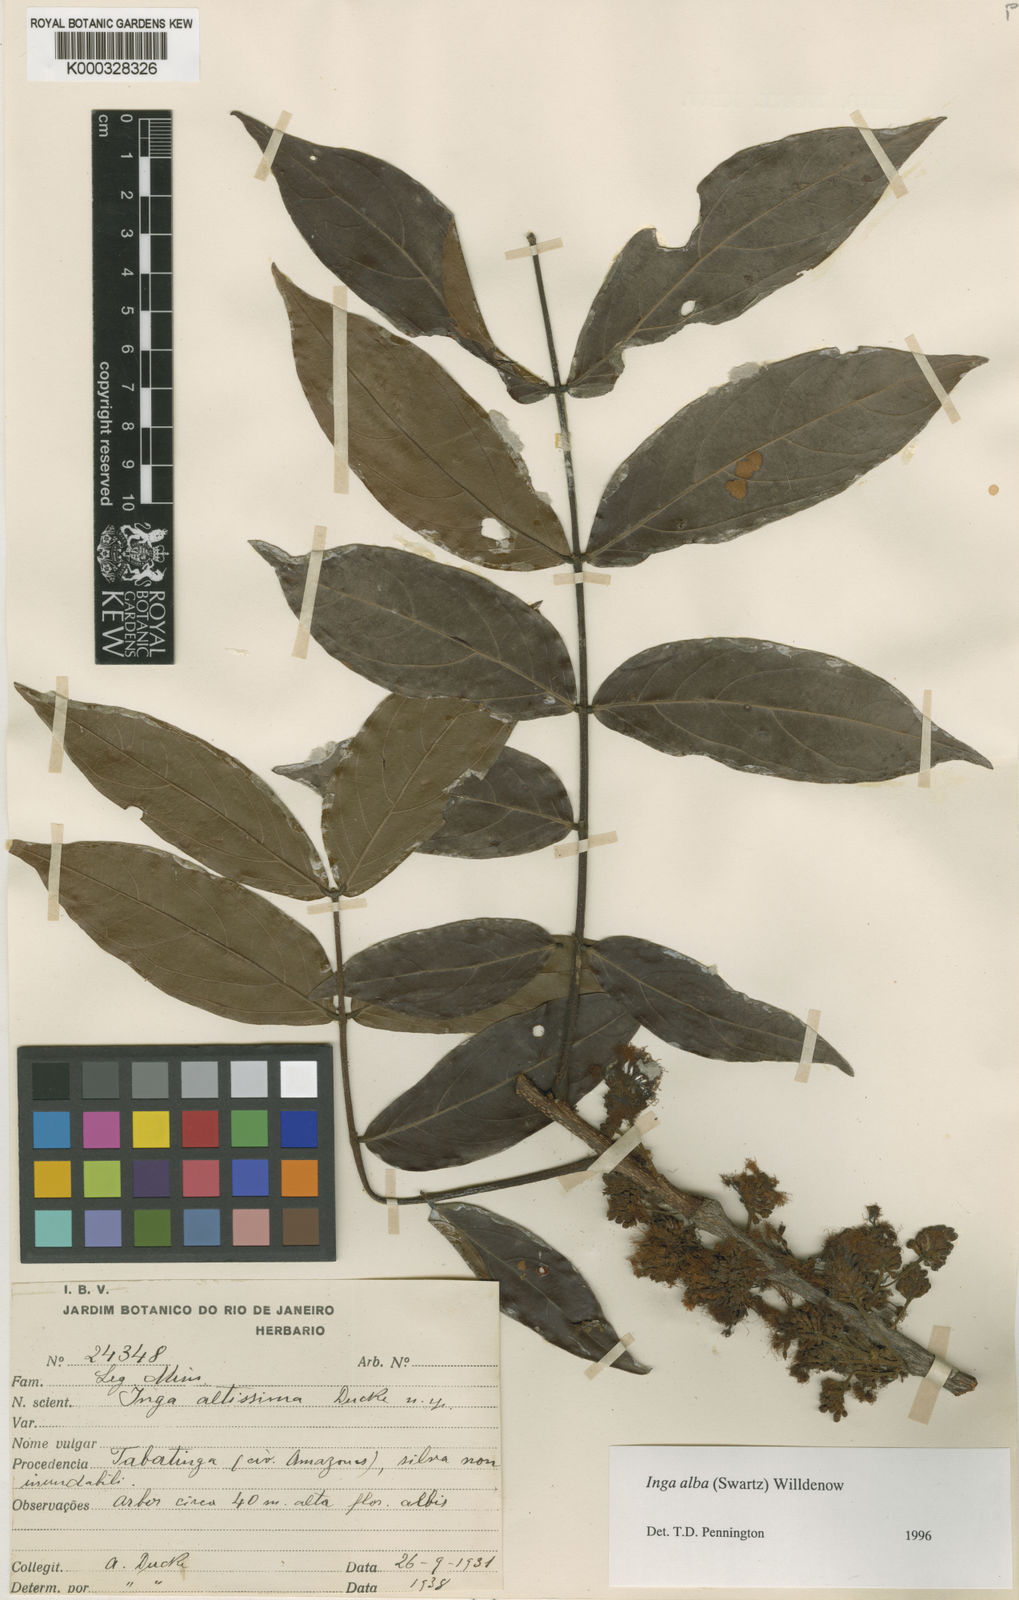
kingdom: Plantae
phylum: Tracheophyta
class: Magnoliopsida
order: Fabales
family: Fabaceae
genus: Inga
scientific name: Inga alba
